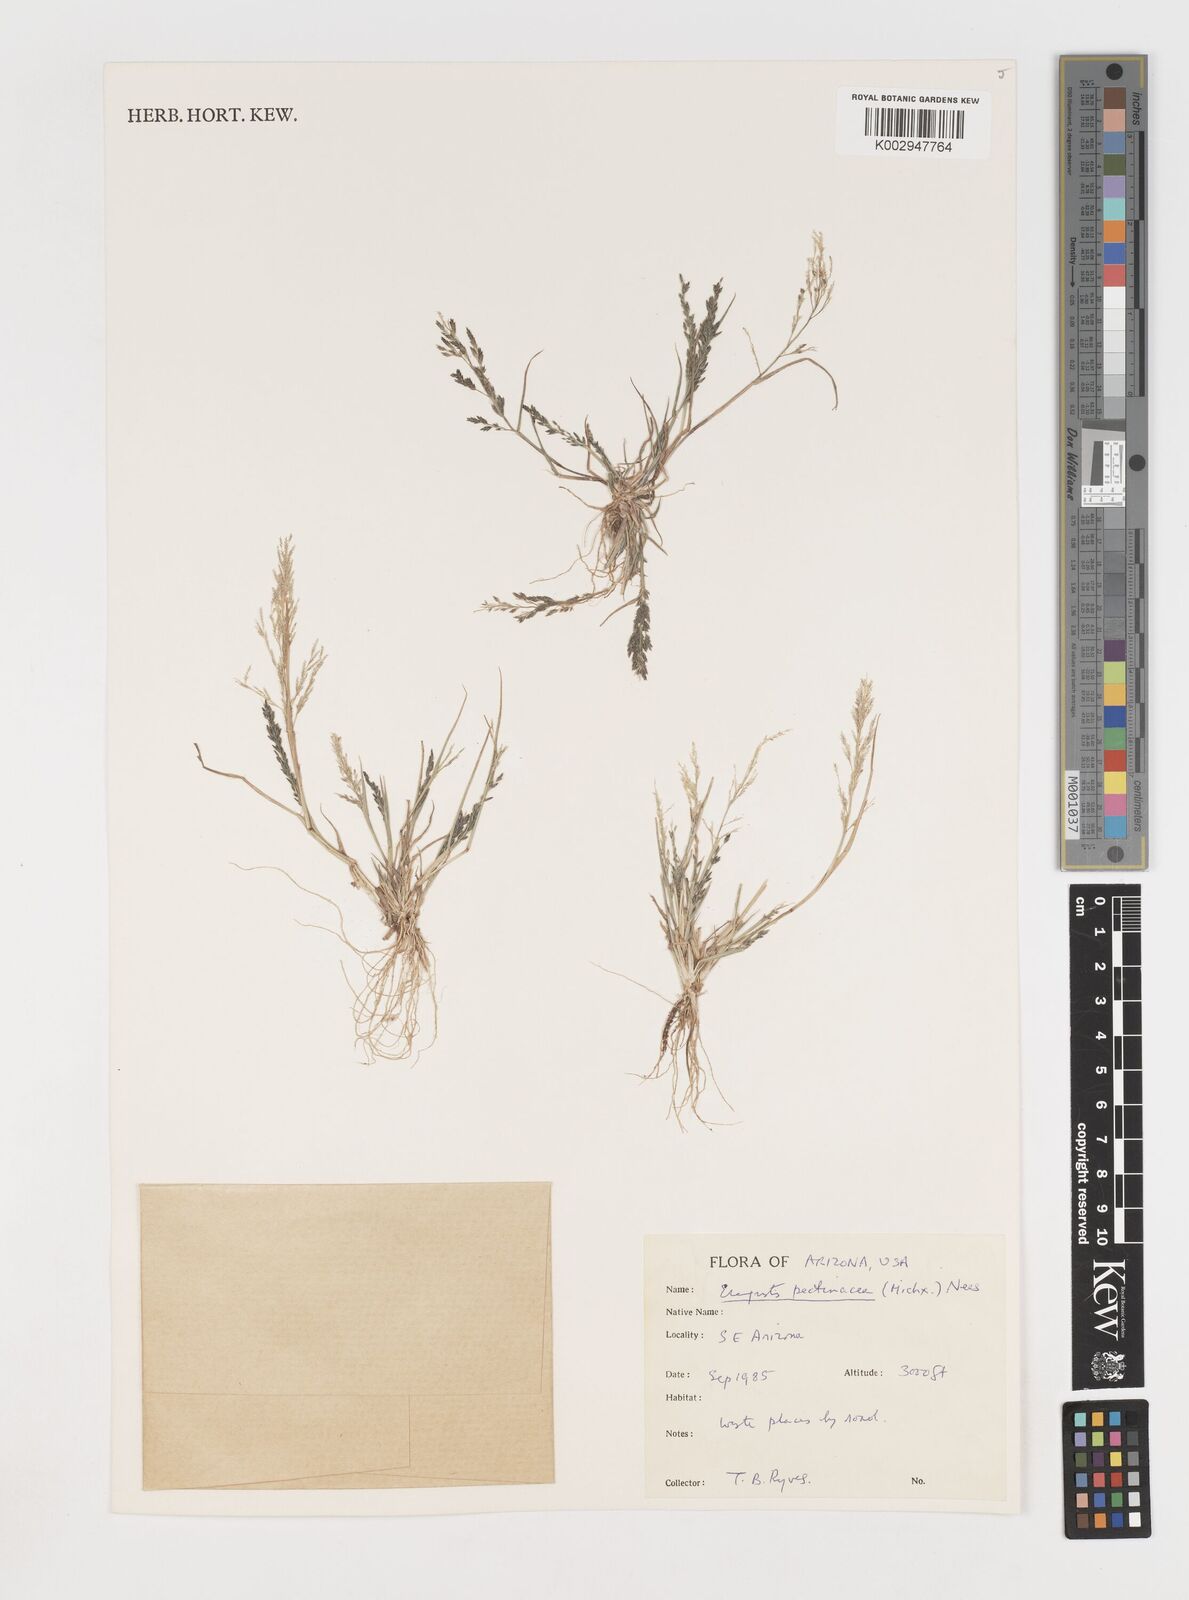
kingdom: Plantae
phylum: Tracheophyta
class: Liliopsida
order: Poales
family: Poaceae
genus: Eragrostis
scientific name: Eragrostis pectinacea
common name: Tufted lovegrass
